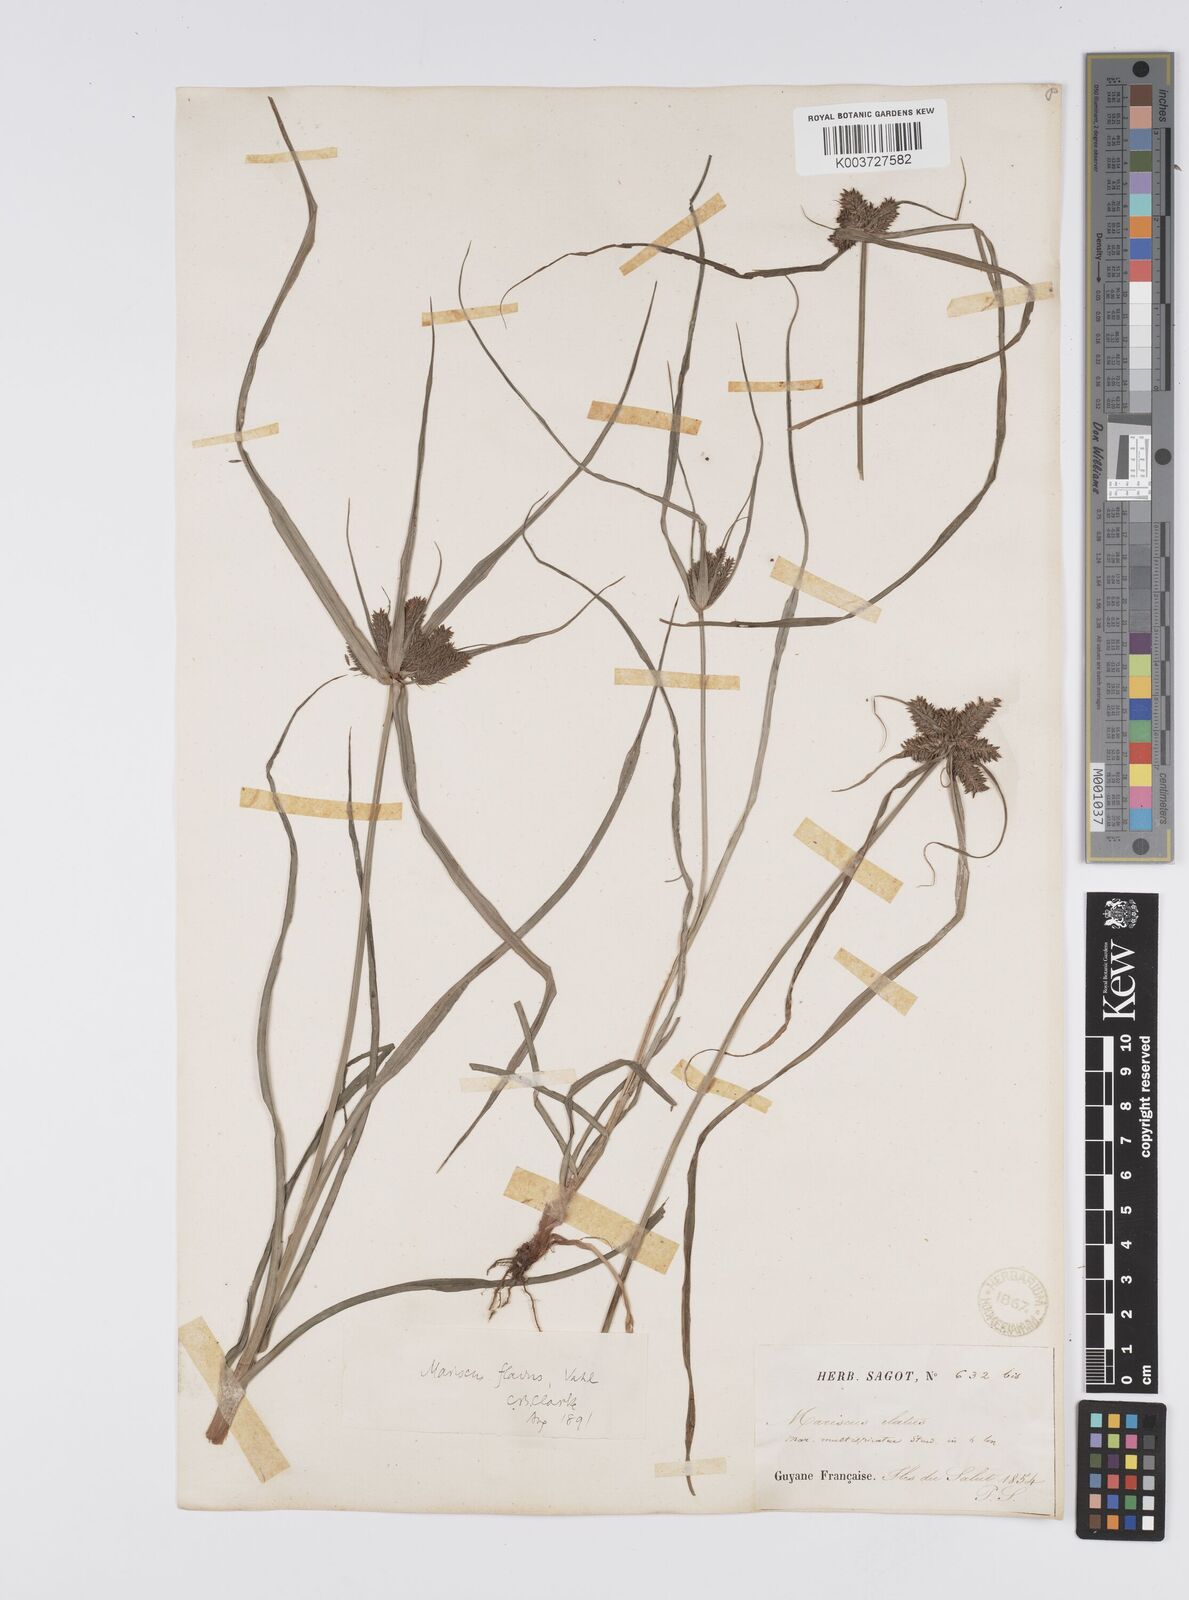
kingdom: Plantae
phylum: Tracheophyta
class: Liliopsida
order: Poales
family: Cyperaceae
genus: Cyperus
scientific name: Cyperus aggregatus
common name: Inflatedscale flatsedge
